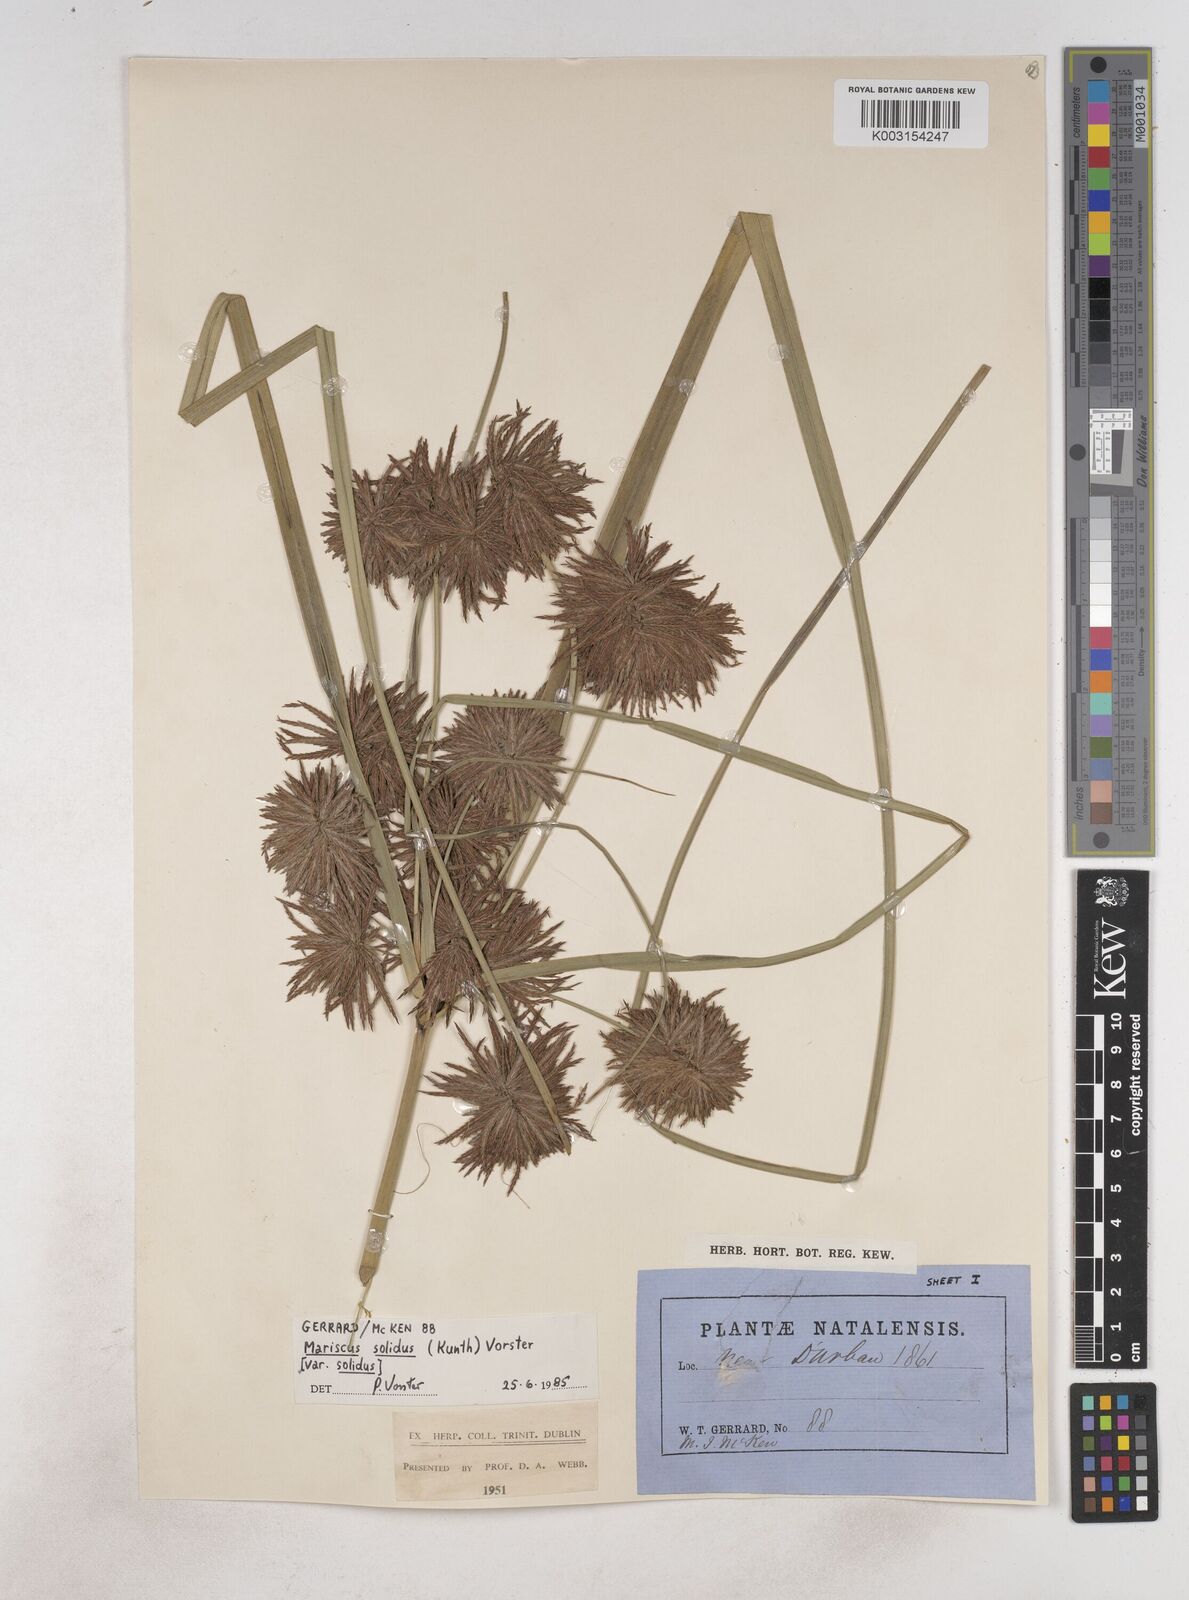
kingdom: Plantae
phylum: Tracheophyta
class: Liliopsida
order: Poales
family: Cyperaceae
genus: Cyperus
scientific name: Cyperus congestus
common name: Dense flat sedge
